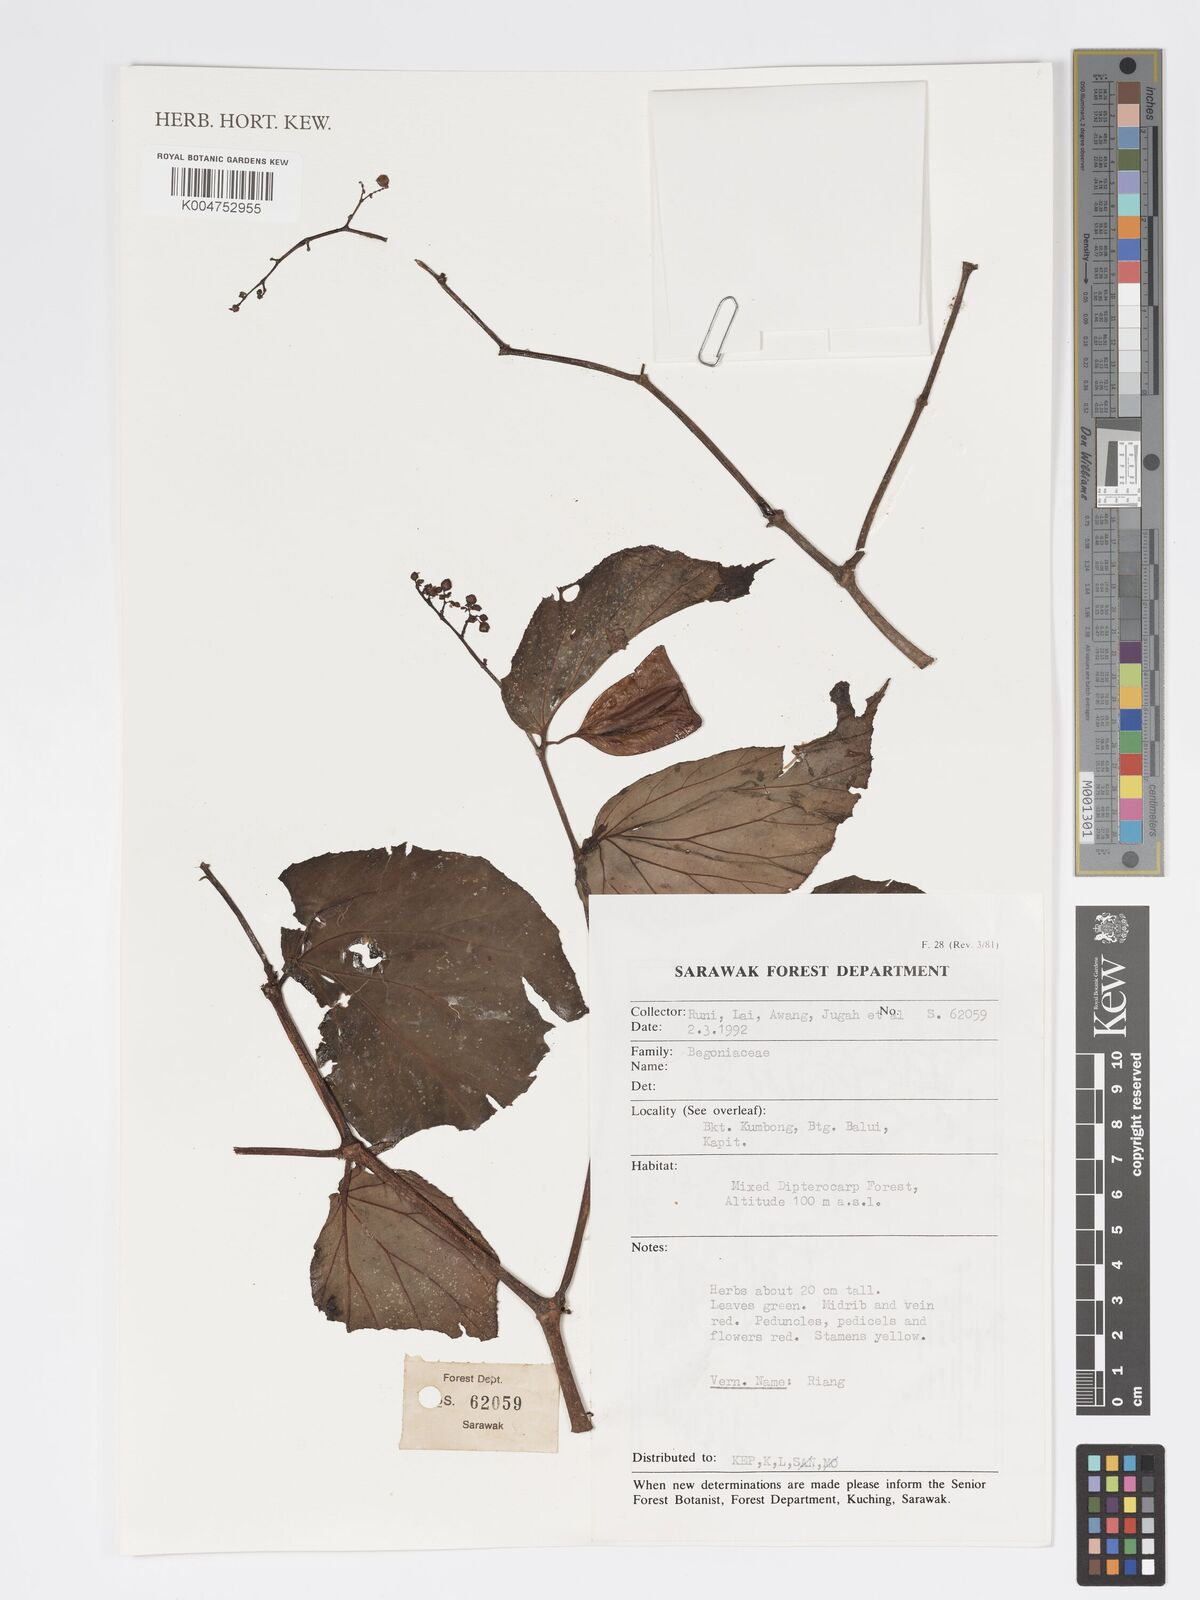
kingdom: Plantae
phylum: Tracheophyta
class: Magnoliopsida
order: Cucurbitales
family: Begoniaceae
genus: Begonia
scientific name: Begonia
